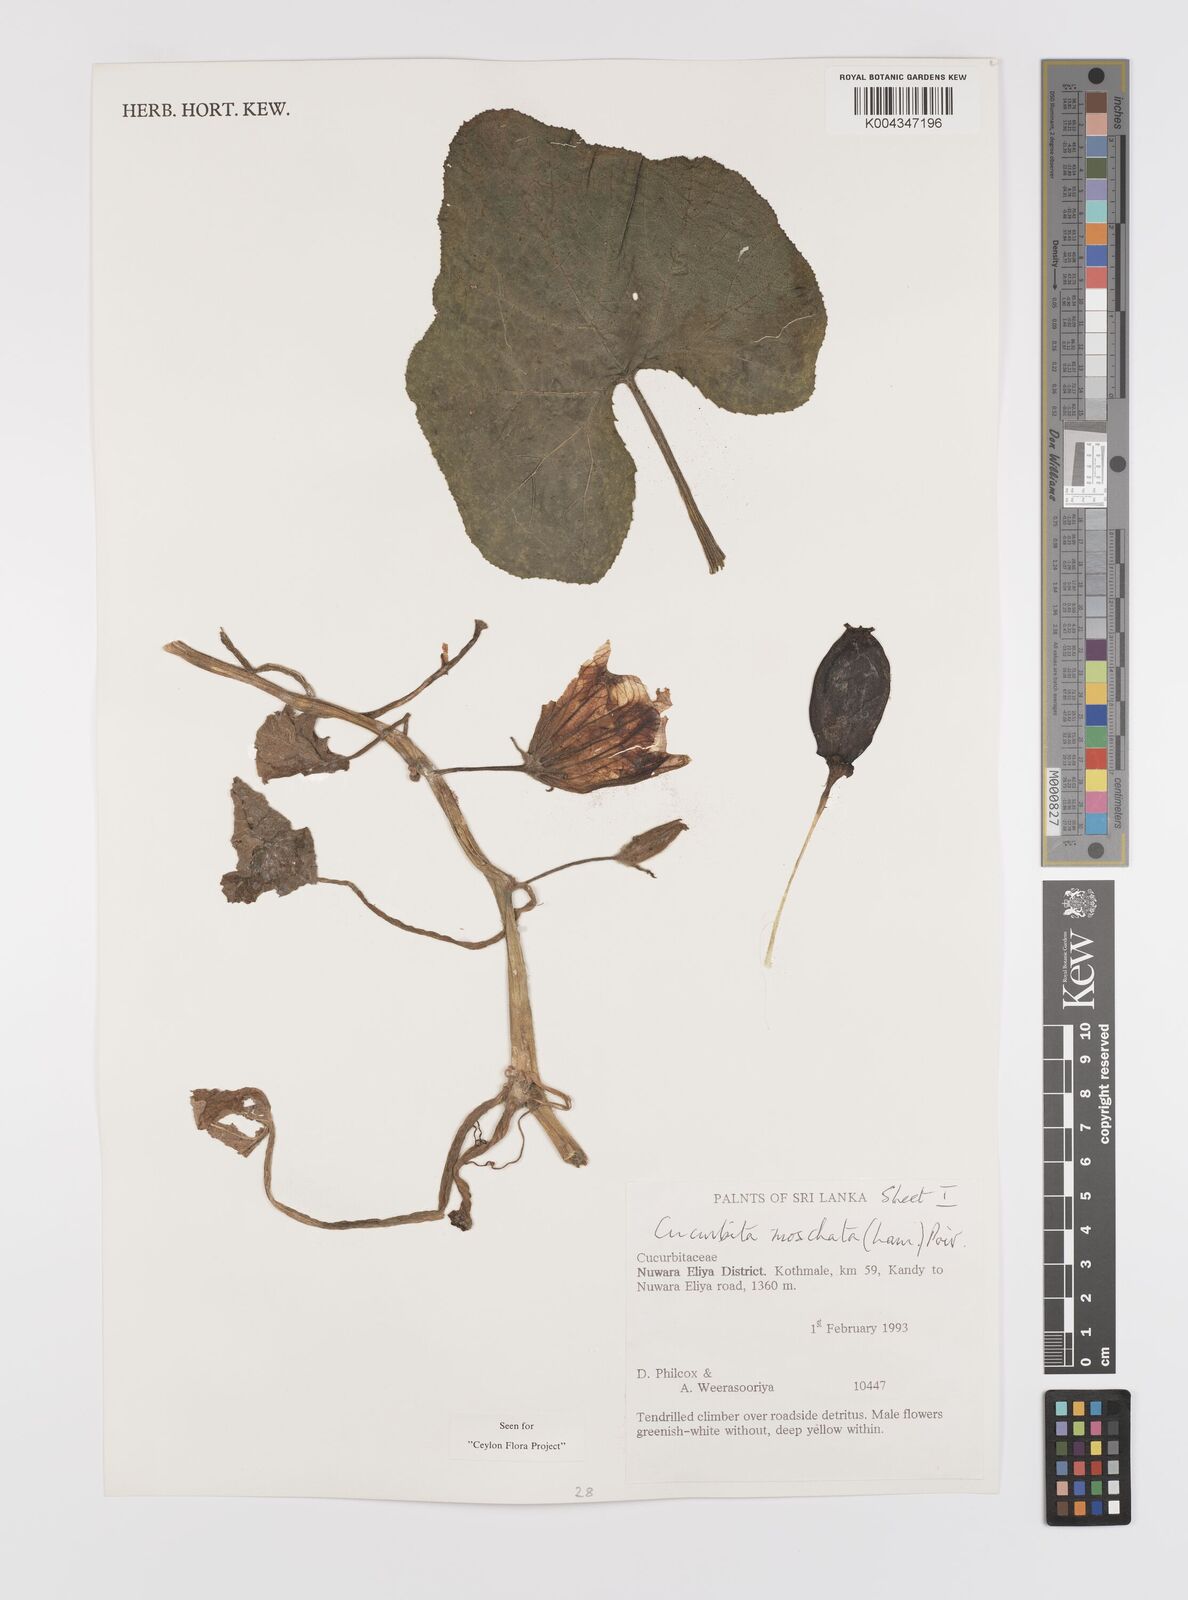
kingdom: Plantae
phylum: Tracheophyta
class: Magnoliopsida
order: Cucurbitales
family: Cucurbitaceae
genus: Cucurbita
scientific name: Cucurbita moschata
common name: Squash / pumpkin
